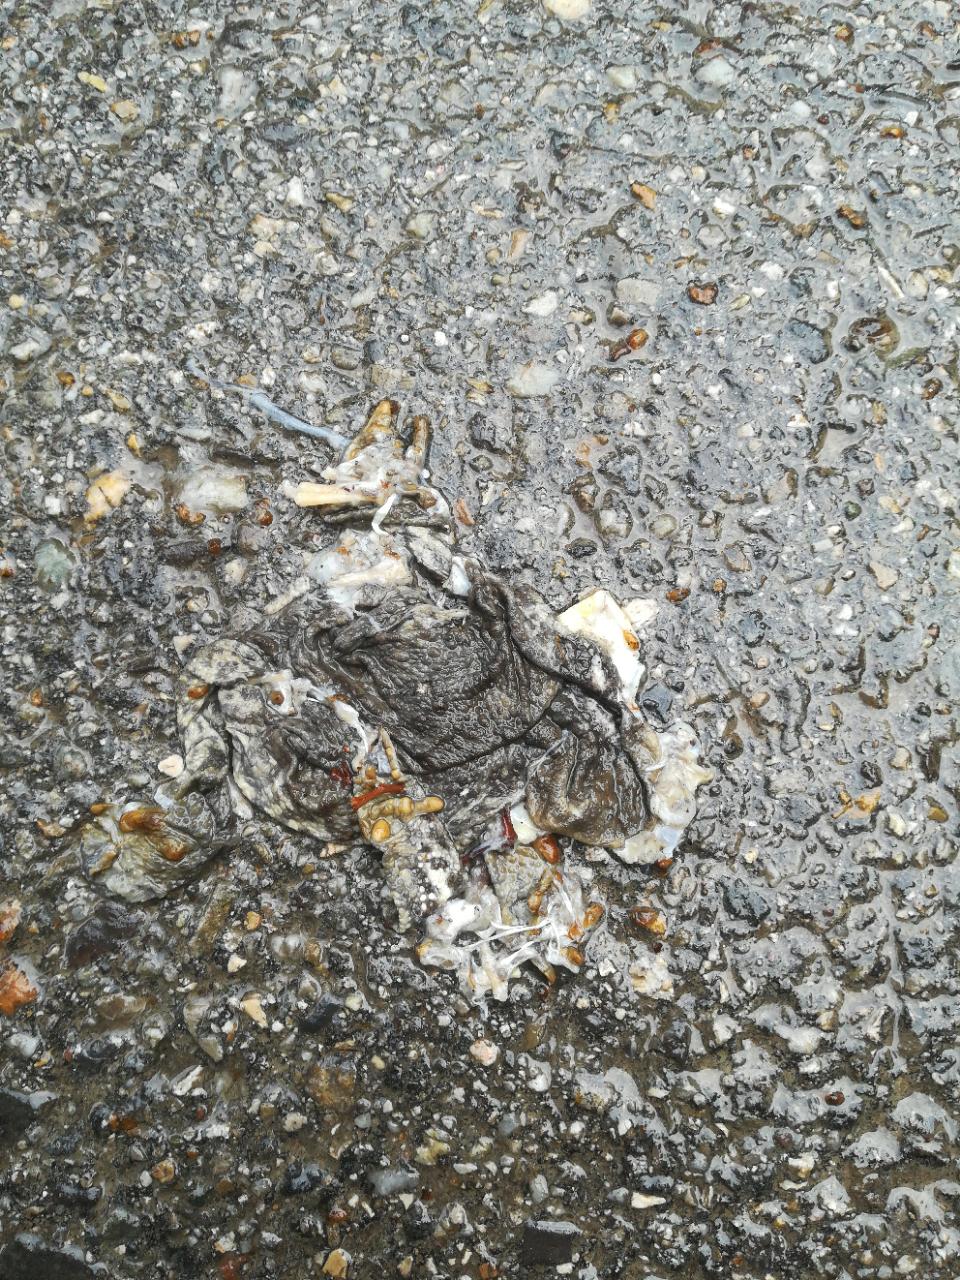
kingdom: Animalia
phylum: Chordata
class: Amphibia
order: Anura
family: Bufonidae
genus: Bufo
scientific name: Bufo bufo
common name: Common toad
